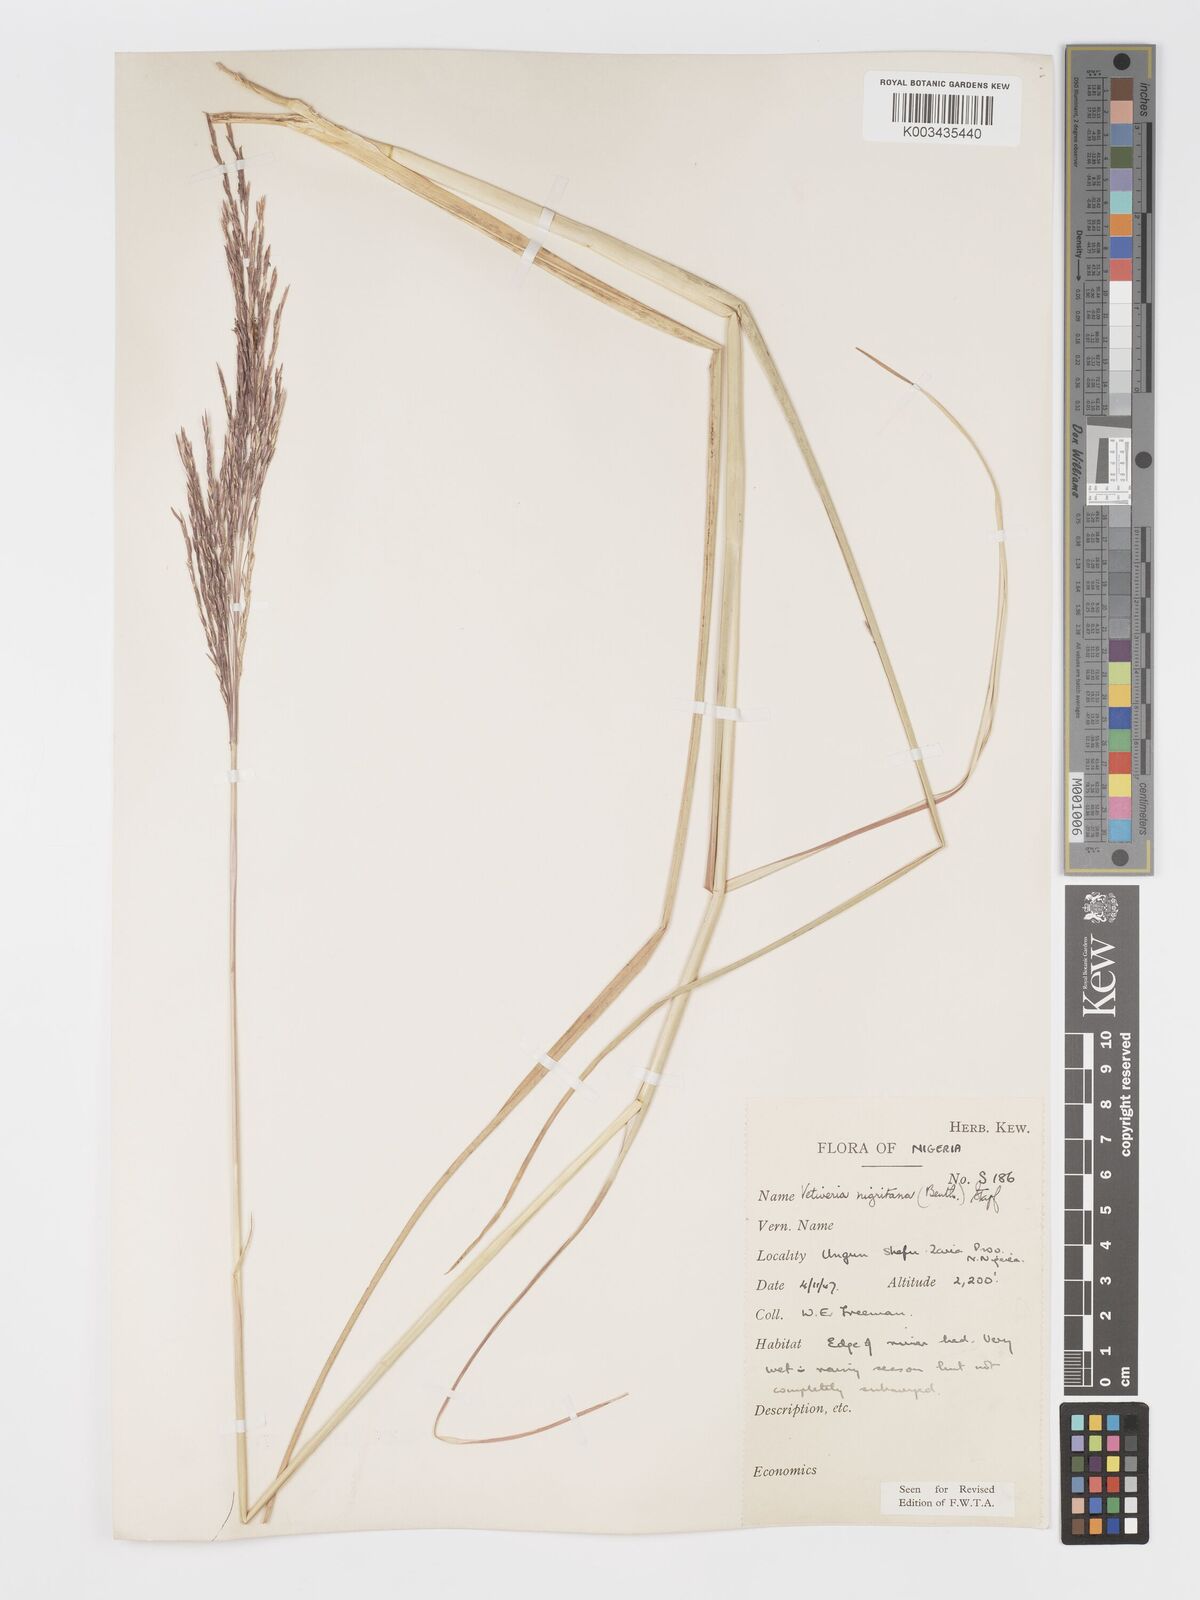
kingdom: Plantae
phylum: Tracheophyta
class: Liliopsida
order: Poales
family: Poaceae
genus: Chrysopogon
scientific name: Chrysopogon nigritanus
